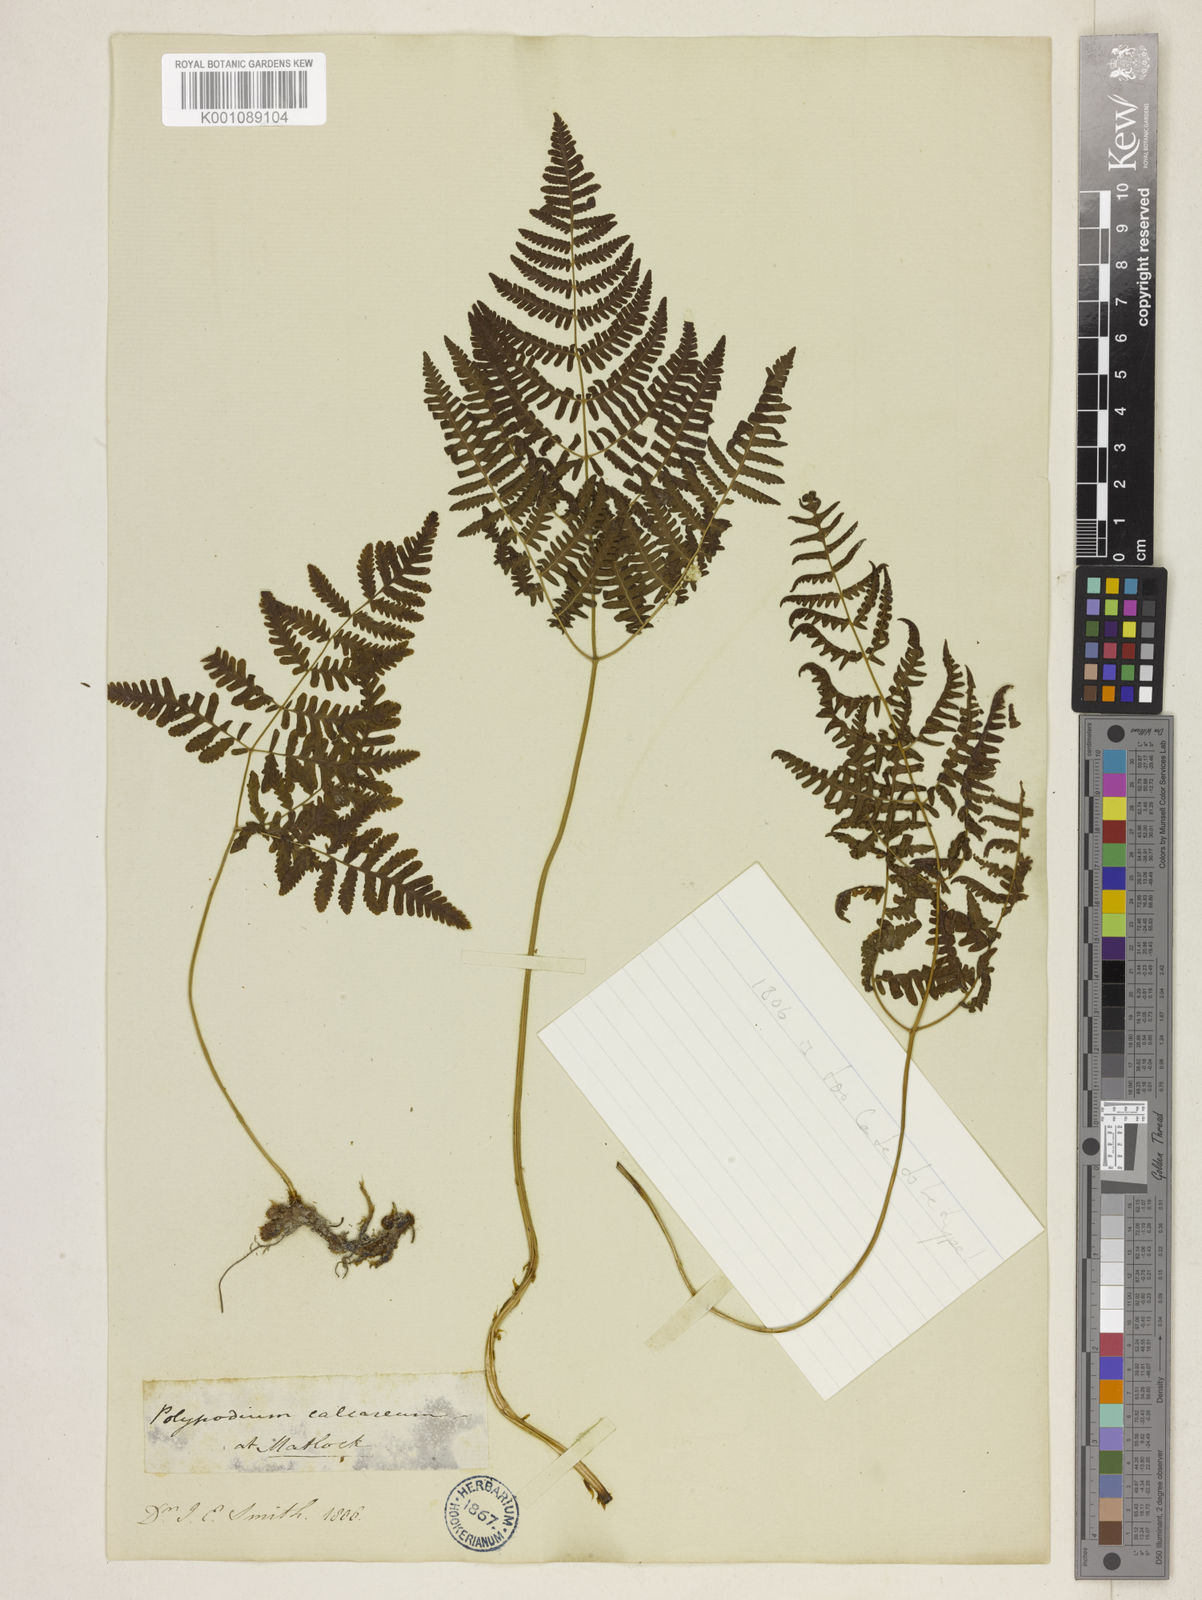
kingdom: Plantae
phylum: Tracheophyta
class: Polypodiopsida
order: Polypodiales
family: Cystopteridaceae
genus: Gymnocarpium
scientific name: Gymnocarpium robertianum
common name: Limestone fern
